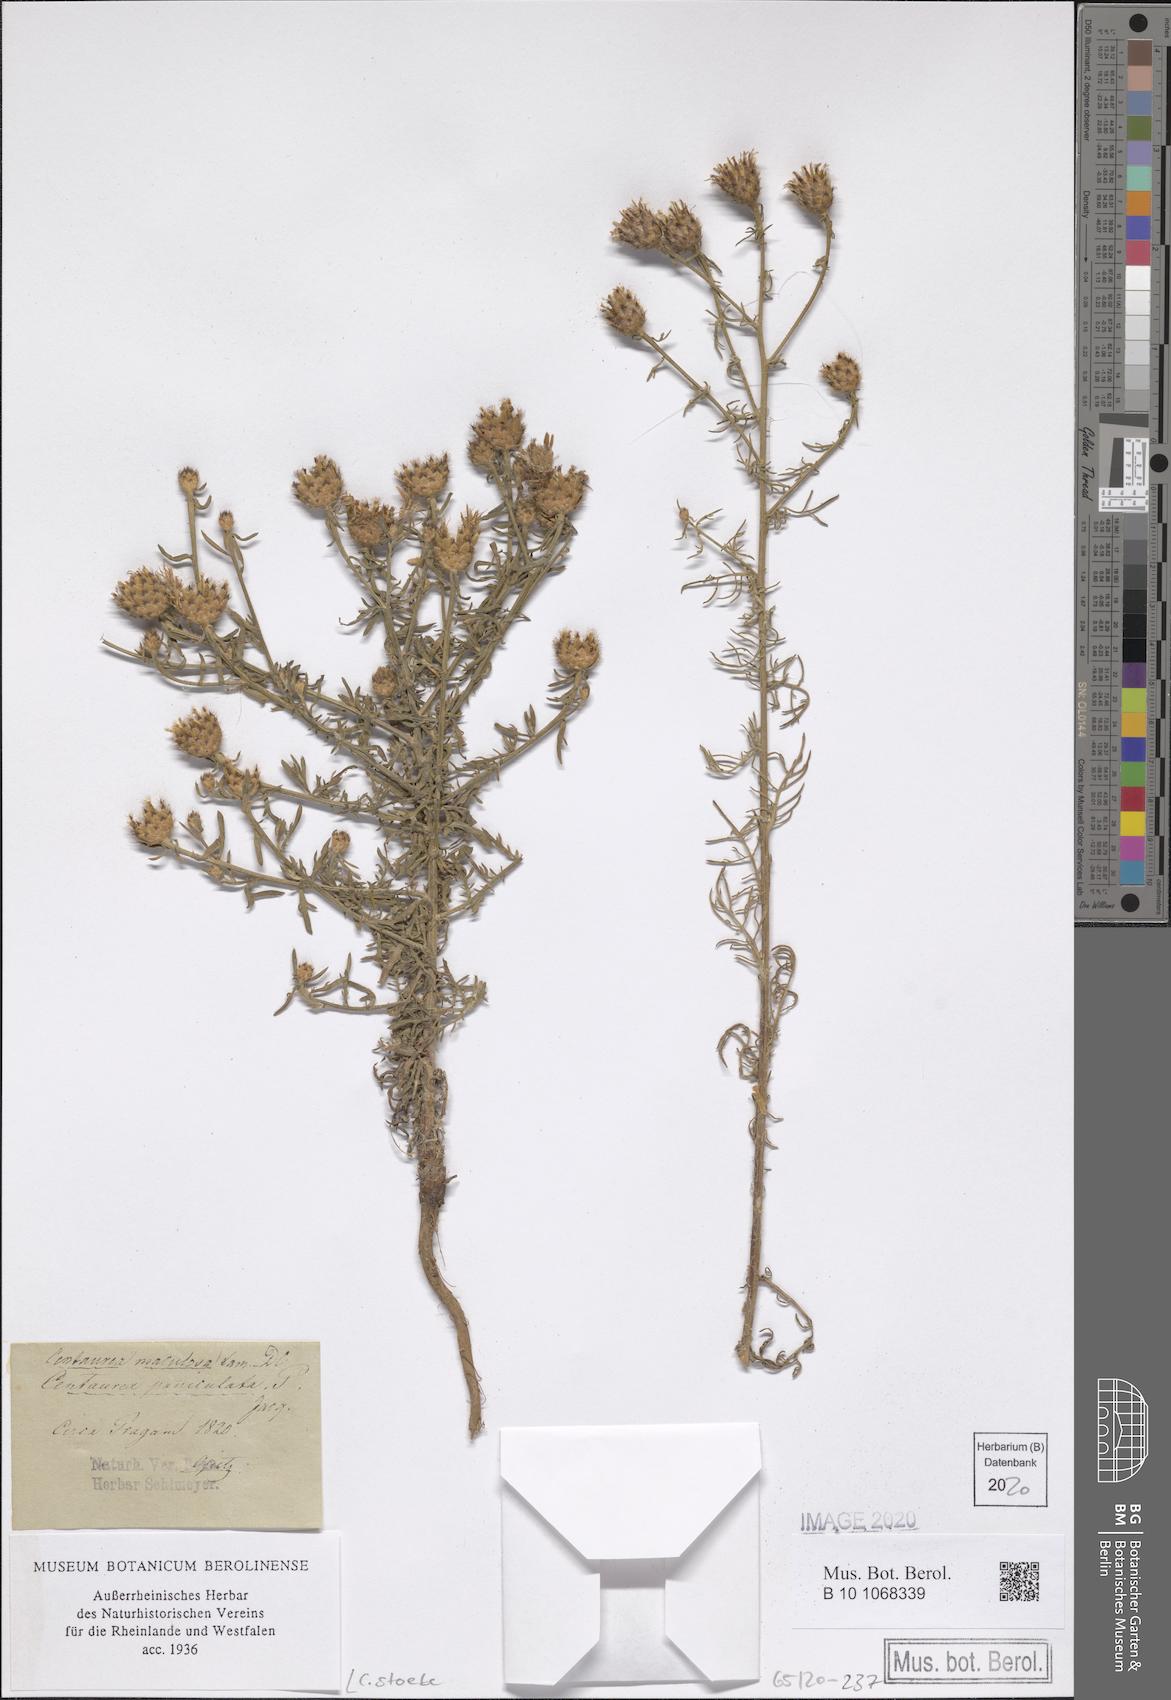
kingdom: Plantae
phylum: Tracheophyta
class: Magnoliopsida
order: Asterales
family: Asteraceae
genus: Centaurea
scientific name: Centaurea stoebe
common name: Spotted knapweed
